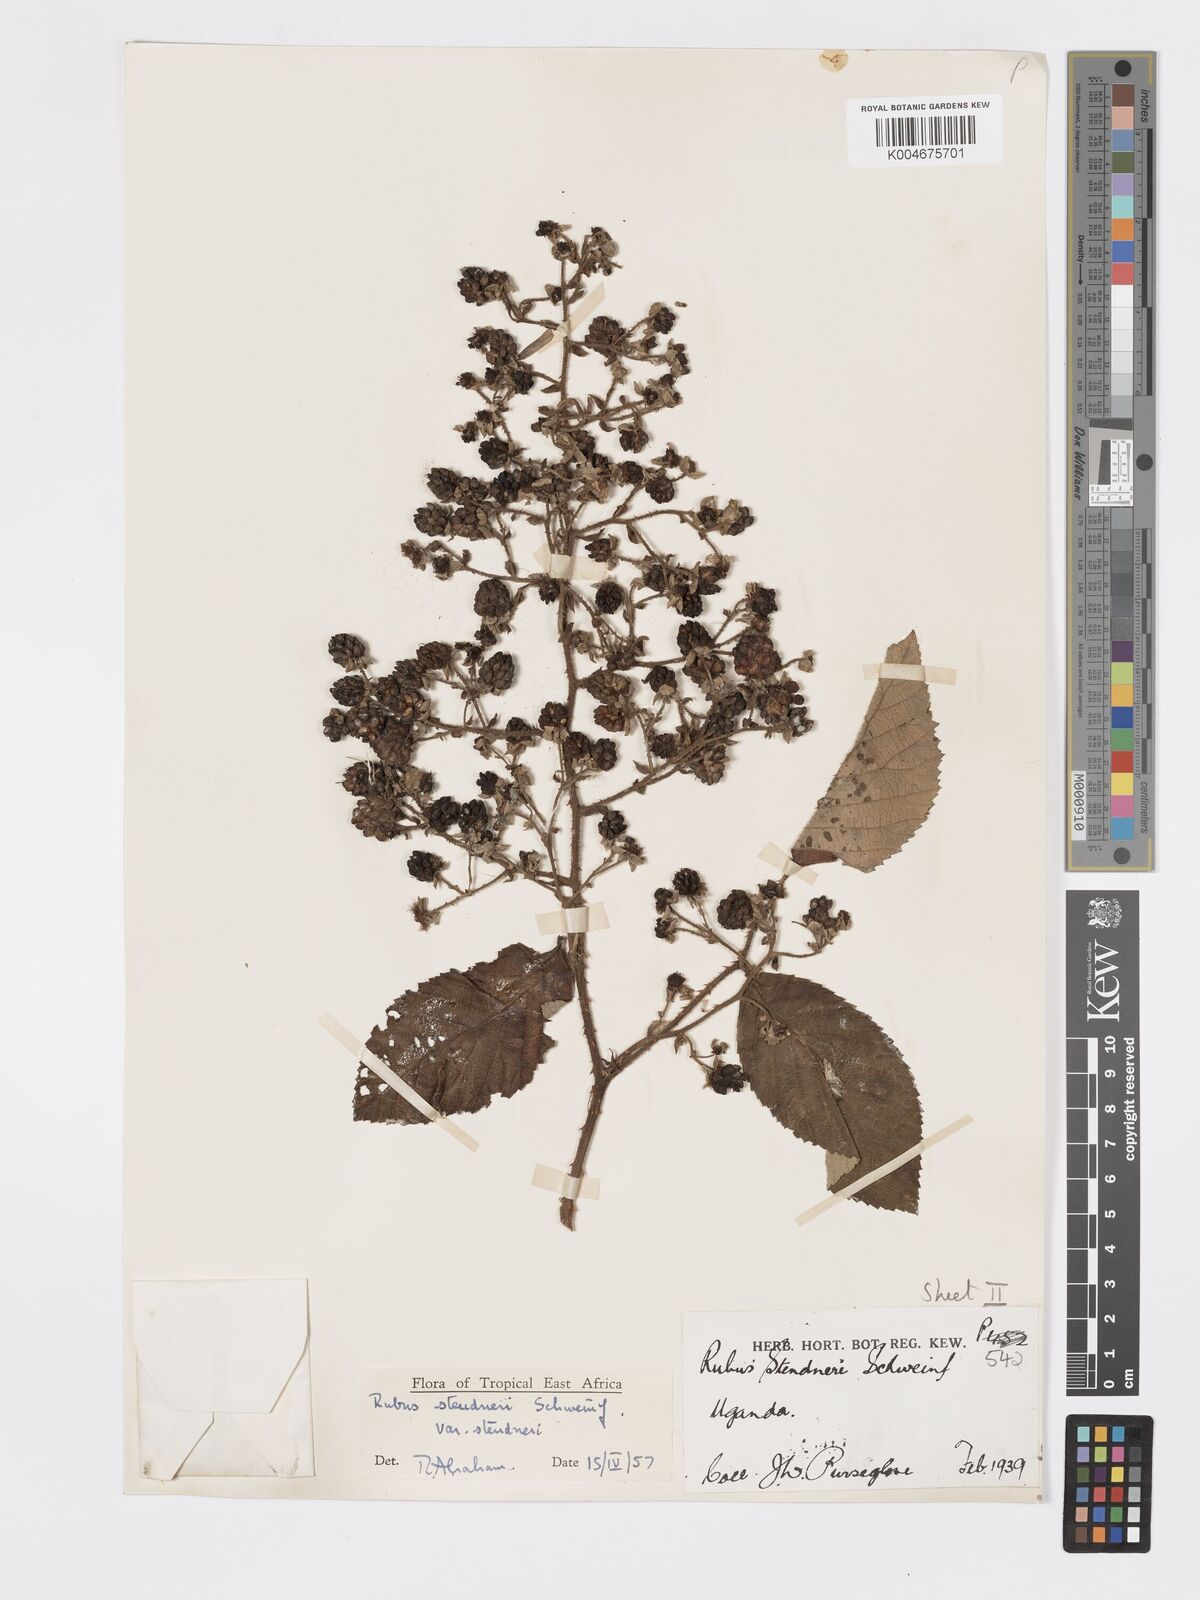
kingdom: Plantae
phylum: Tracheophyta
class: Magnoliopsida
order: Rosales
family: Rosaceae
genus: Rubus
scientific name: Rubus steudneri
